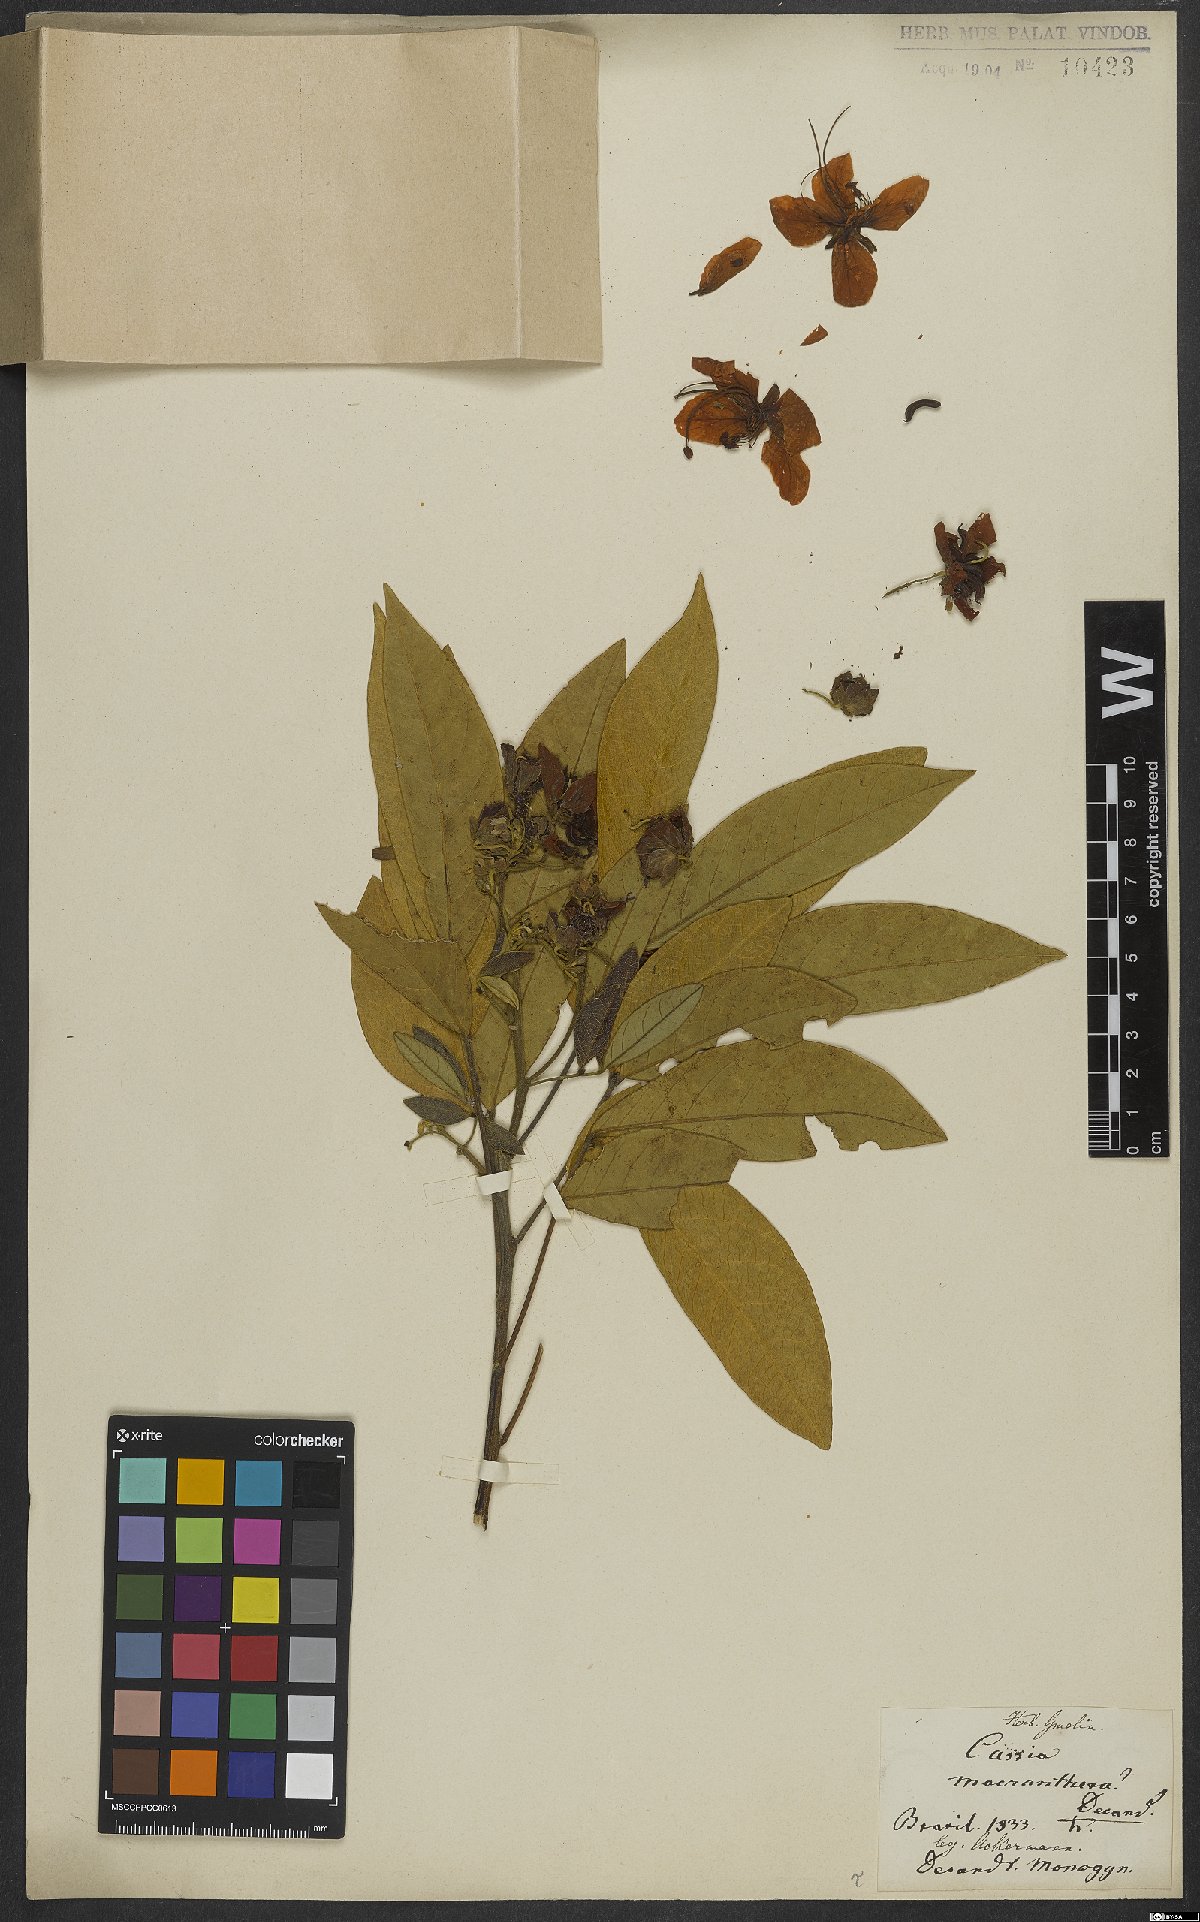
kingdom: Plantae
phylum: Tracheophyta
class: Magnoliopsida
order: Fabales
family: Fabaceae
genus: Senna
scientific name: Senna macranthera
